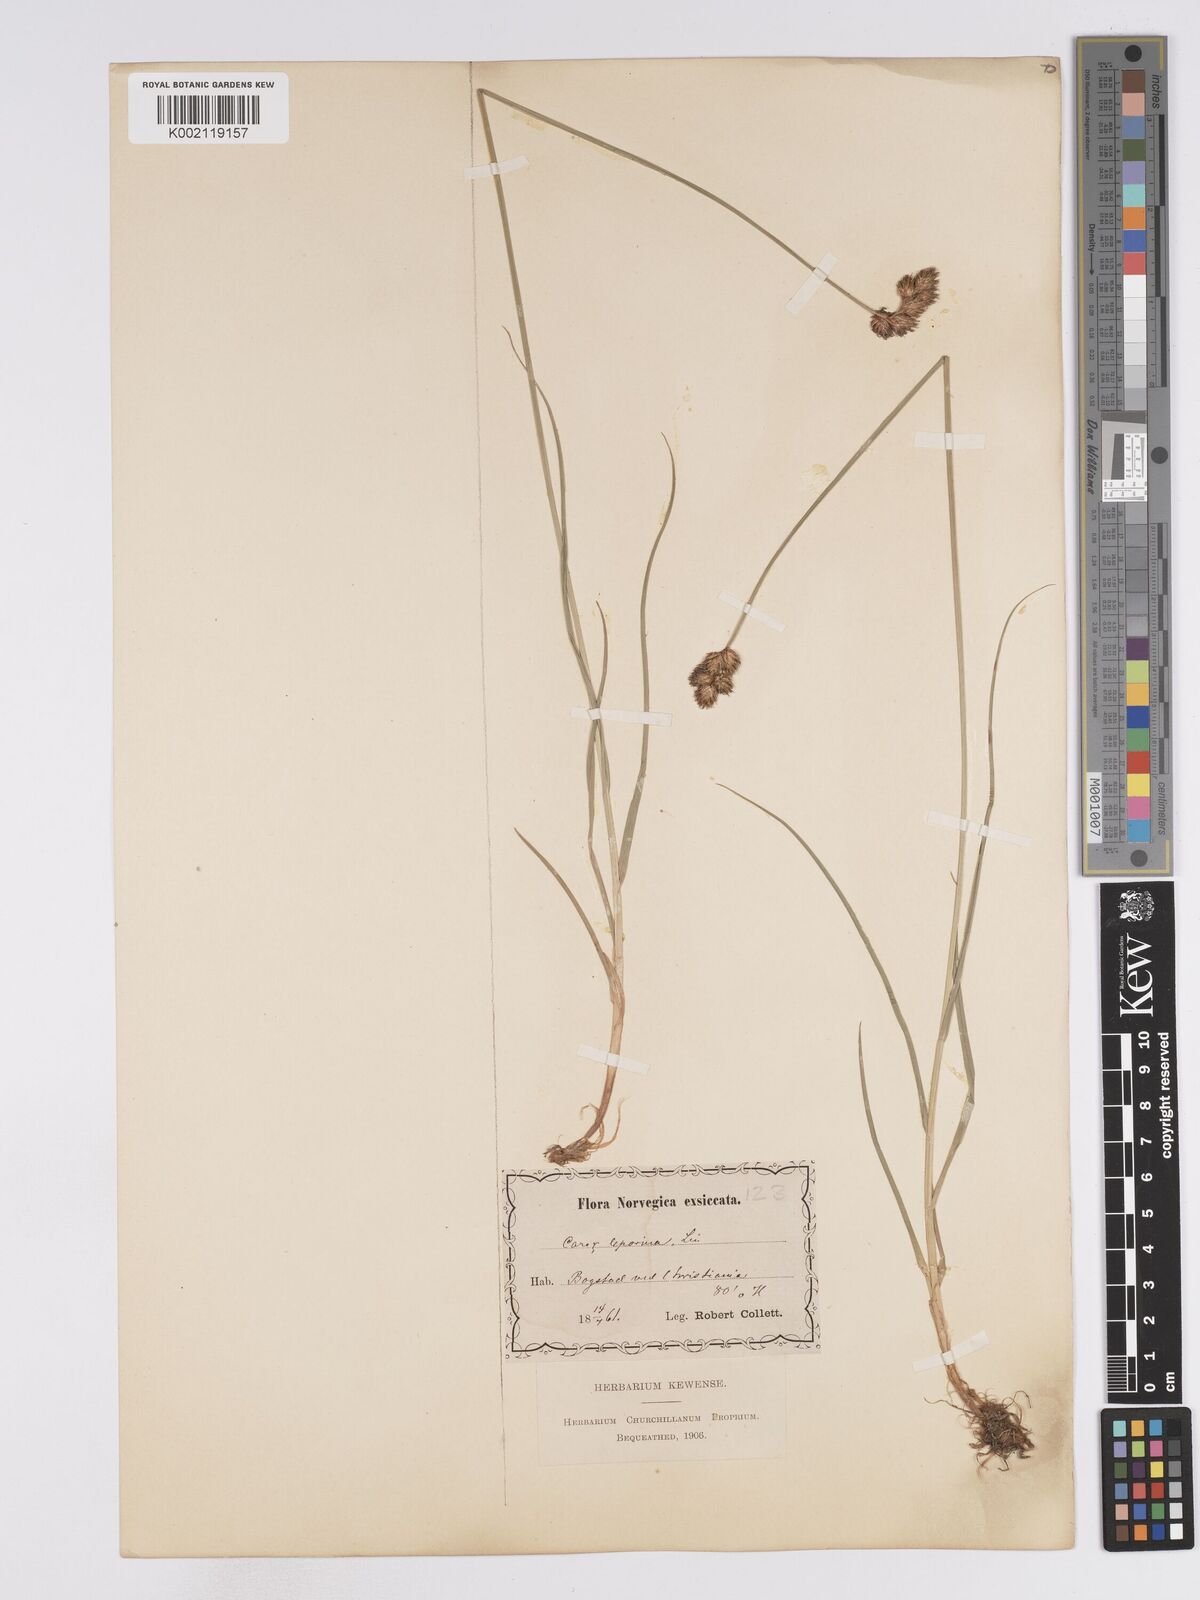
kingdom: Plantae
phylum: Tracheophyta
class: Liliopsida
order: Poales
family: Cyperaceae
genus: Carex
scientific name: Carex leporina
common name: Oval sedge
